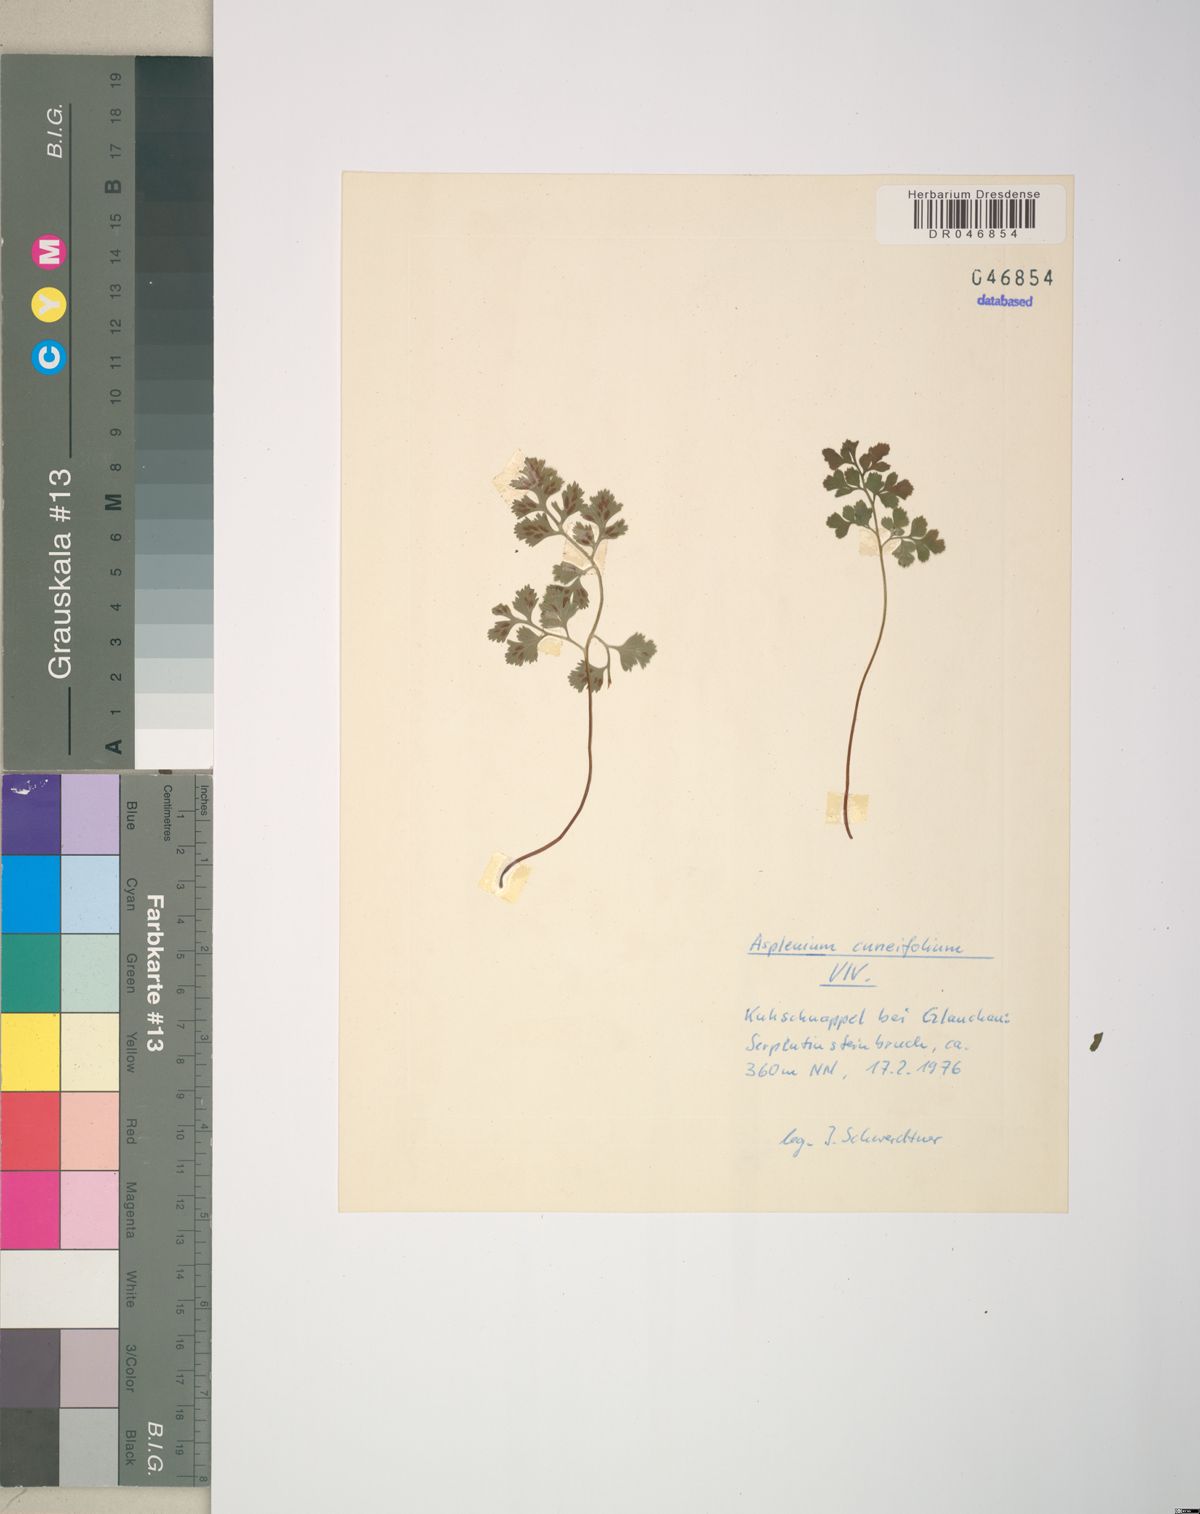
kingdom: Plantae
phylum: Tracheophyta
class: Polypodiopsida
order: Polypodiales
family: Aspleniaceae
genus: Asplenium
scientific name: Asplenium cuneifolium
